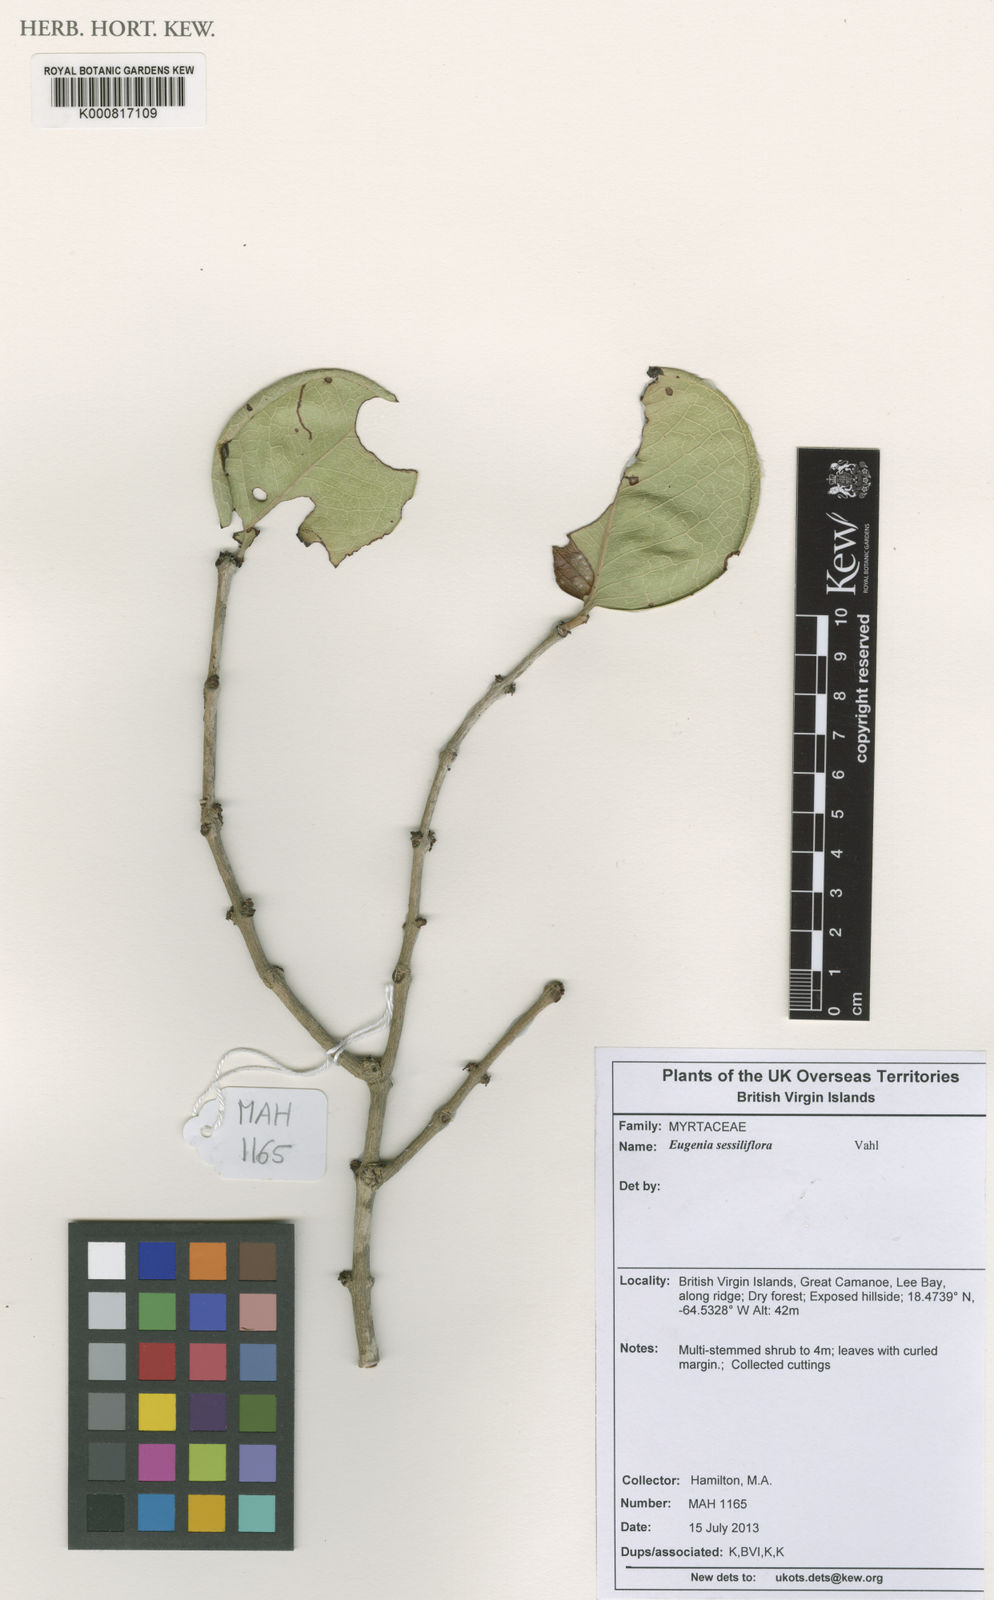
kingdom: Plantae
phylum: Tracheophyta
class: Magnoliopsida
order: Myrtales
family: Myrtaceae
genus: Eugenia
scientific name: Eugenia sessiliflora
